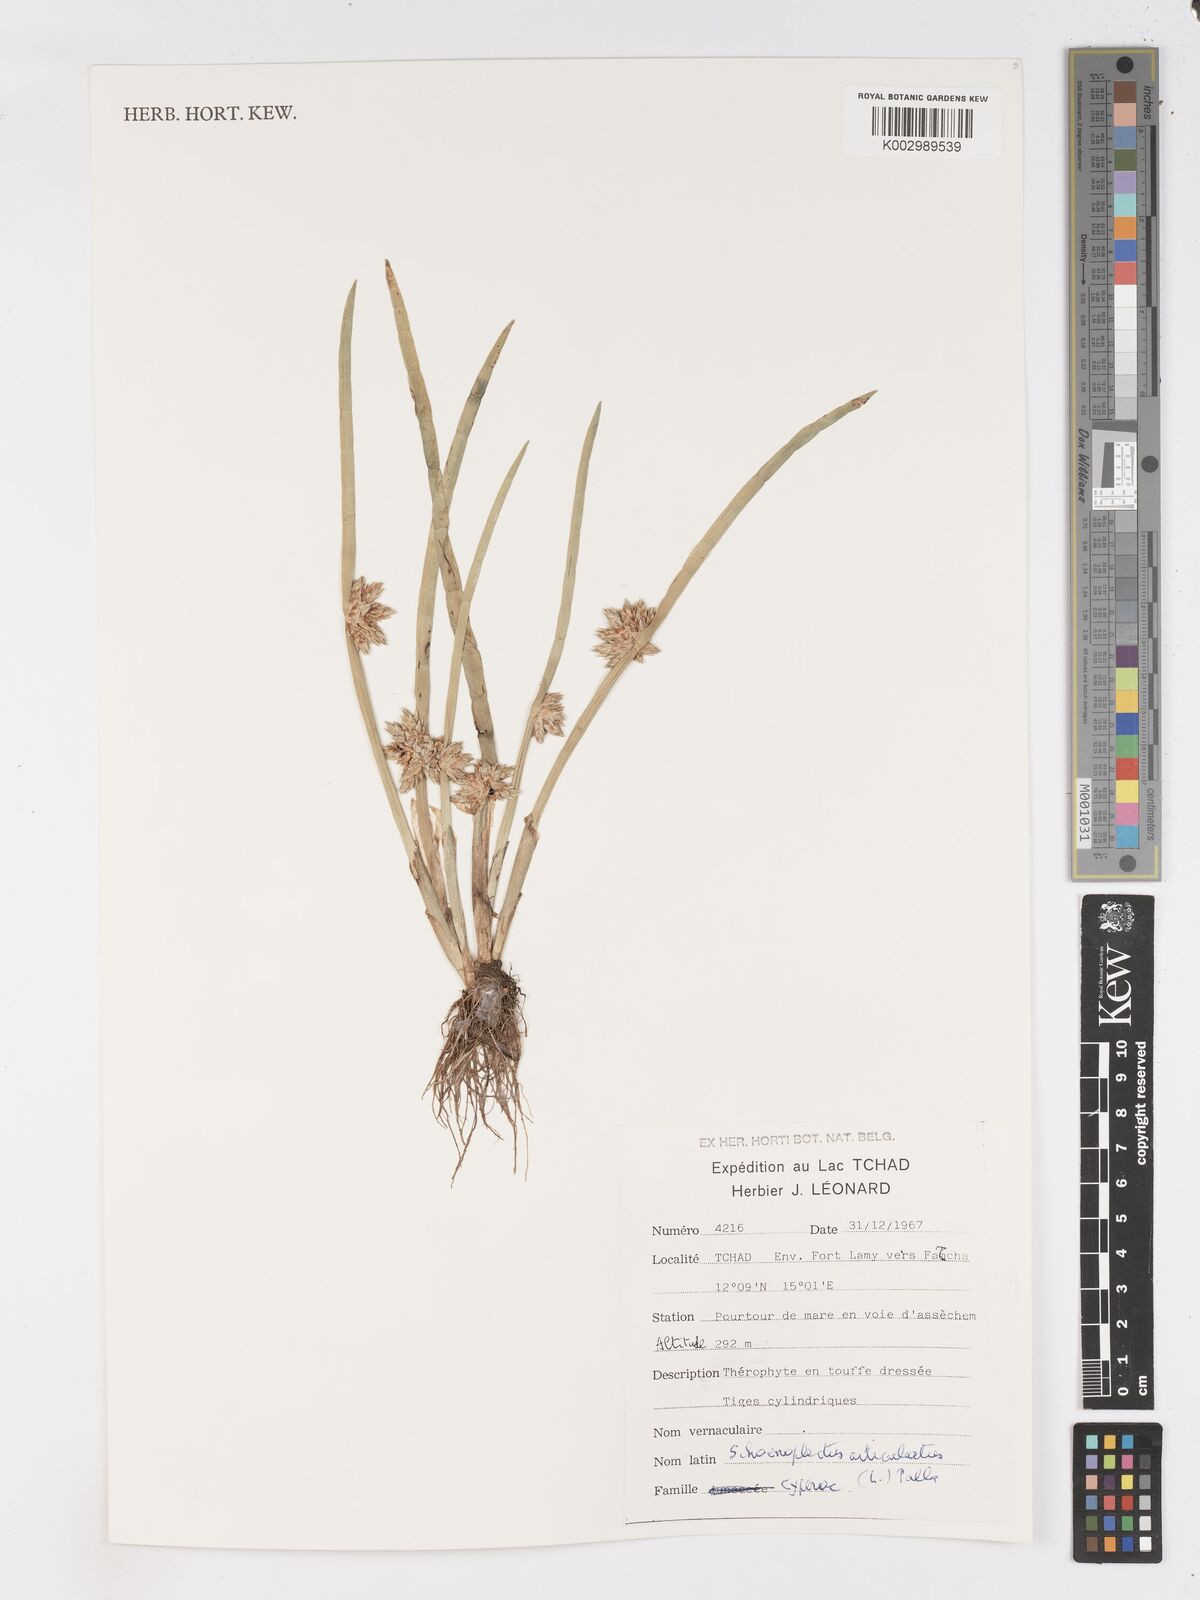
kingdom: Plantae
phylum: Tracheophyta
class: Liliopsida
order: Poales
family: Cyperaceae
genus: Schoenoplectiella
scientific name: Schoenoplectiella articulata
